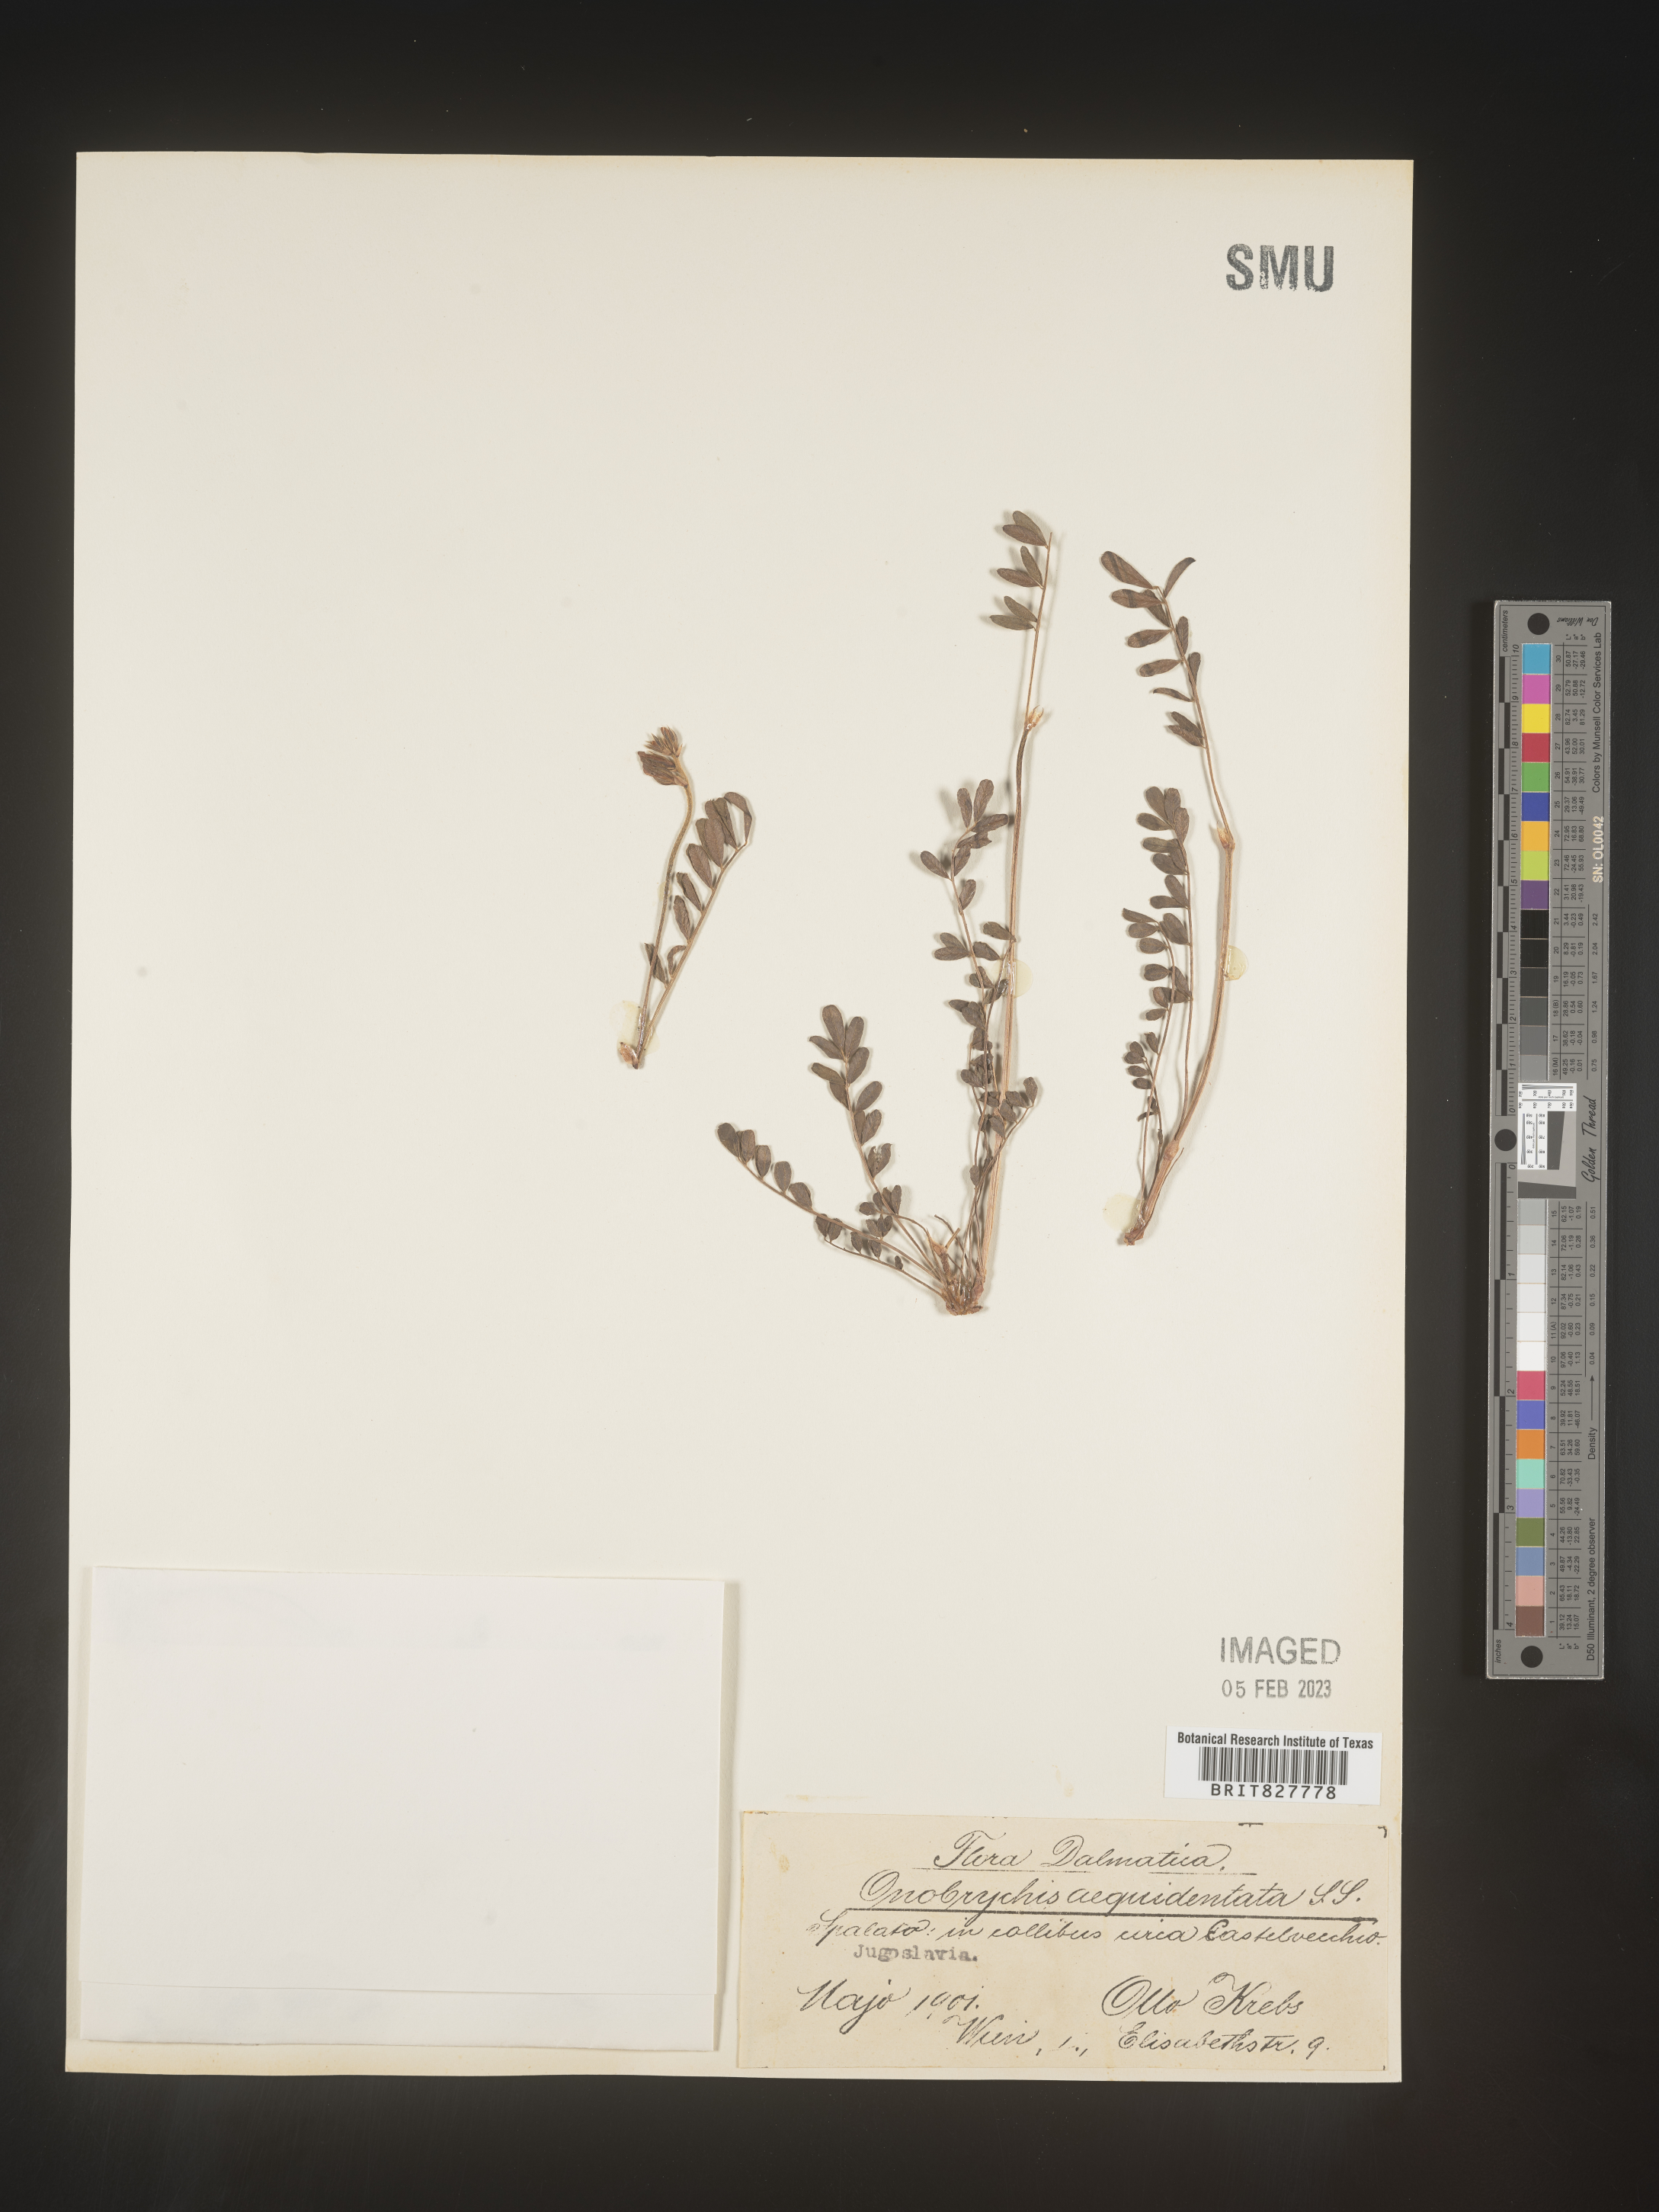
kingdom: Plantae
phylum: Tracheophyta
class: Magnoliopsida
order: Fabales
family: Fabaceae
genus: Onobrychis
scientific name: Onobrychis
